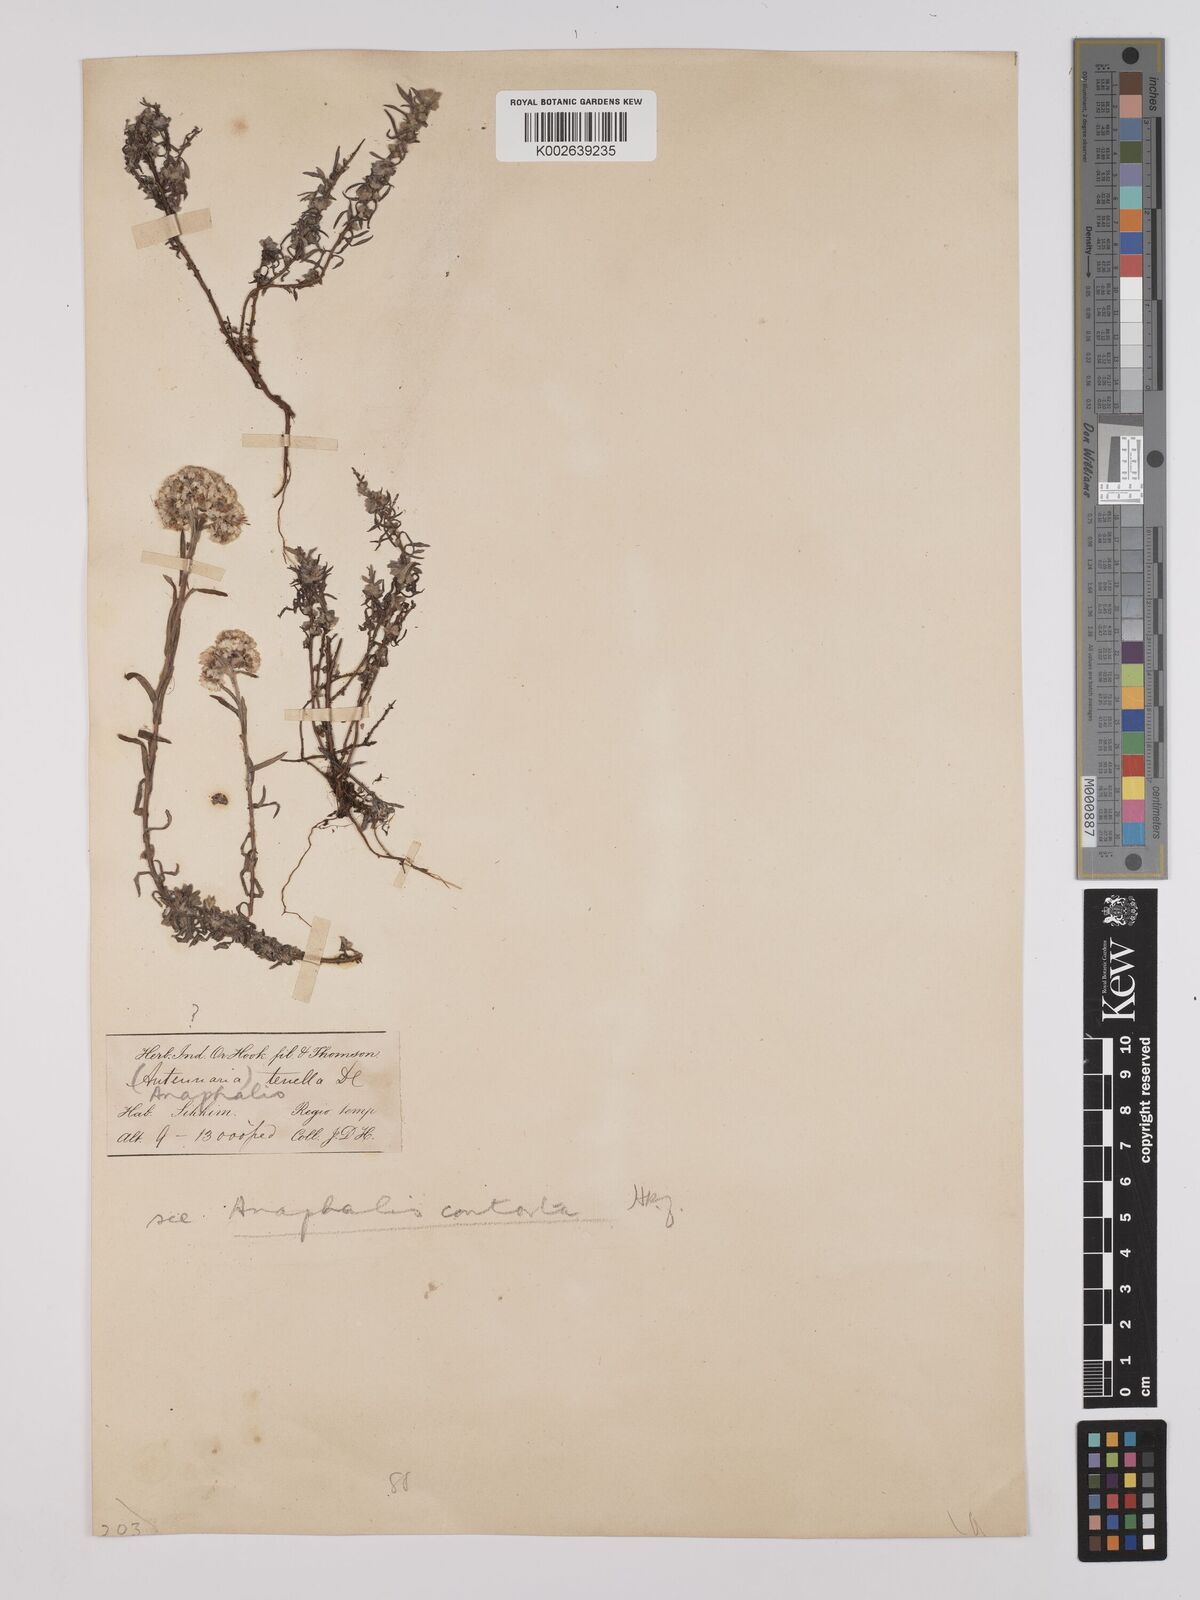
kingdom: Plantae
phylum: Tracheophyta
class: Magnoliopsida
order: Asterales
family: Asteraceae
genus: Anaphalis
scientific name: Anaphalis contorta
